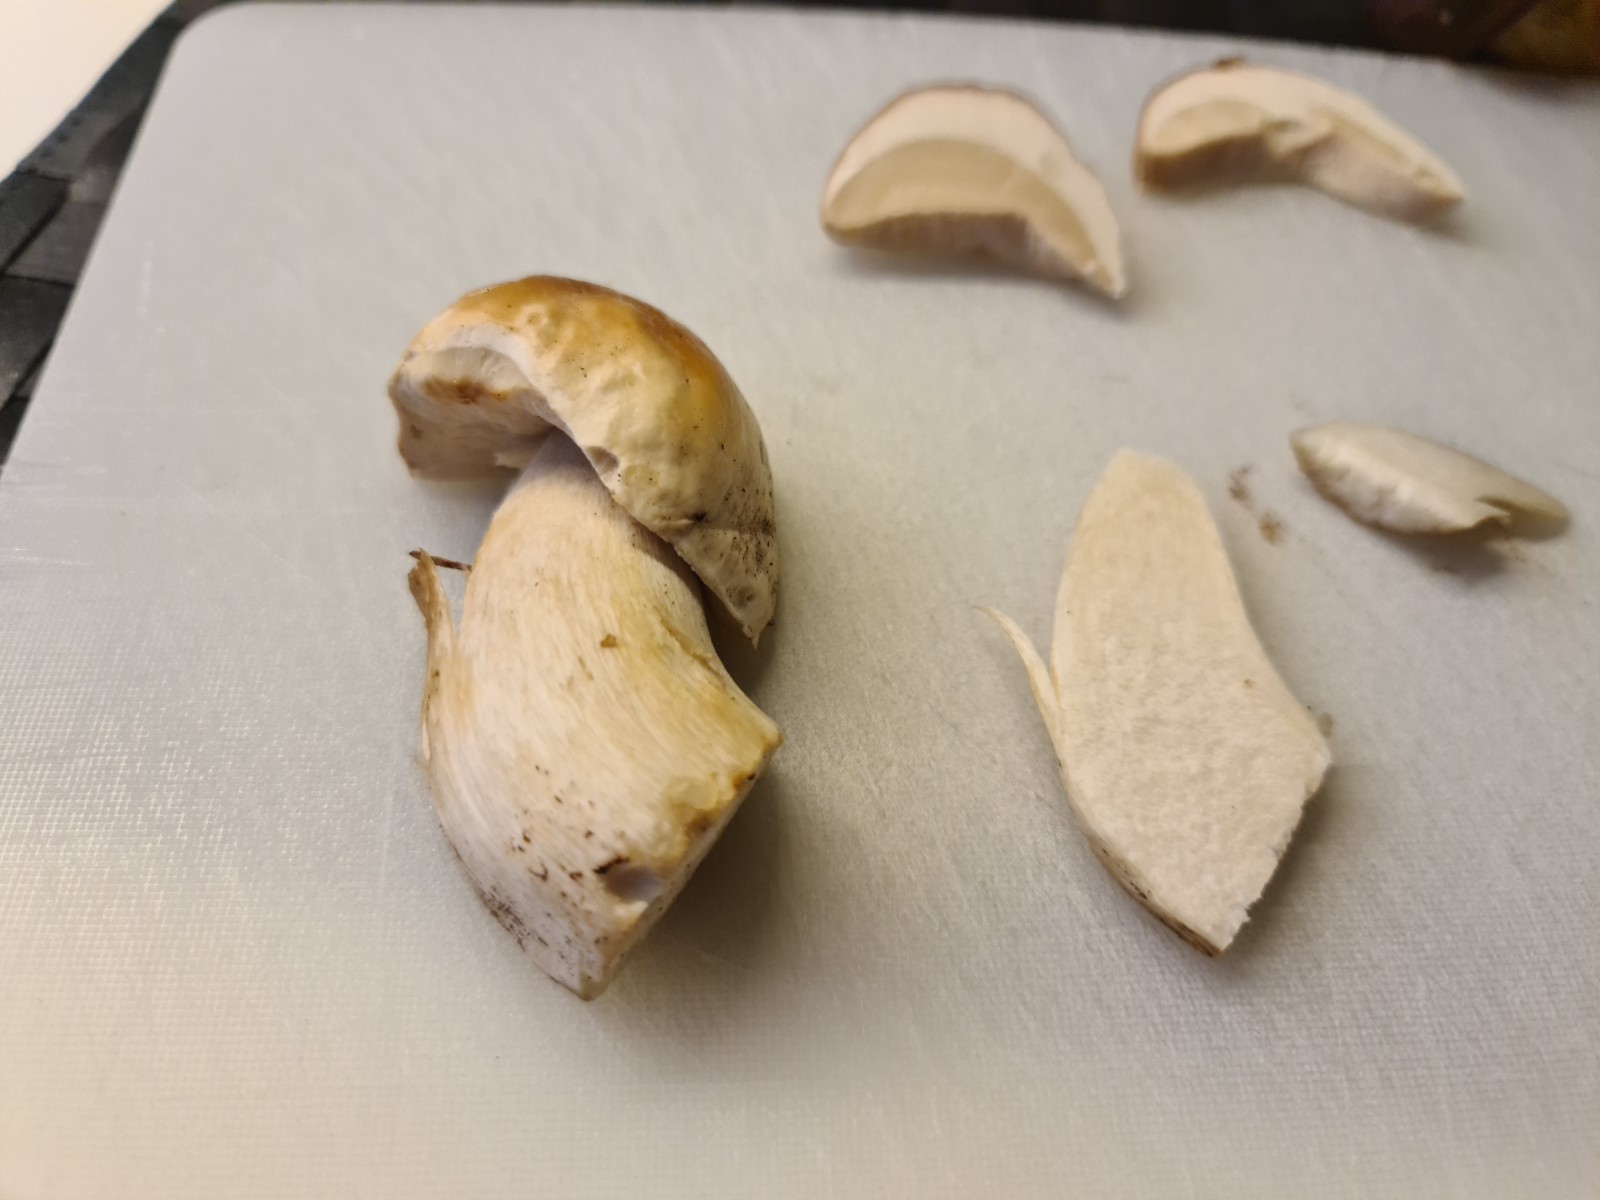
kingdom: Fungi
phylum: Basidiomycota
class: Agaricomycetes
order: Boletales
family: Boletaceae
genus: Boletus
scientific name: Boletus edulis
